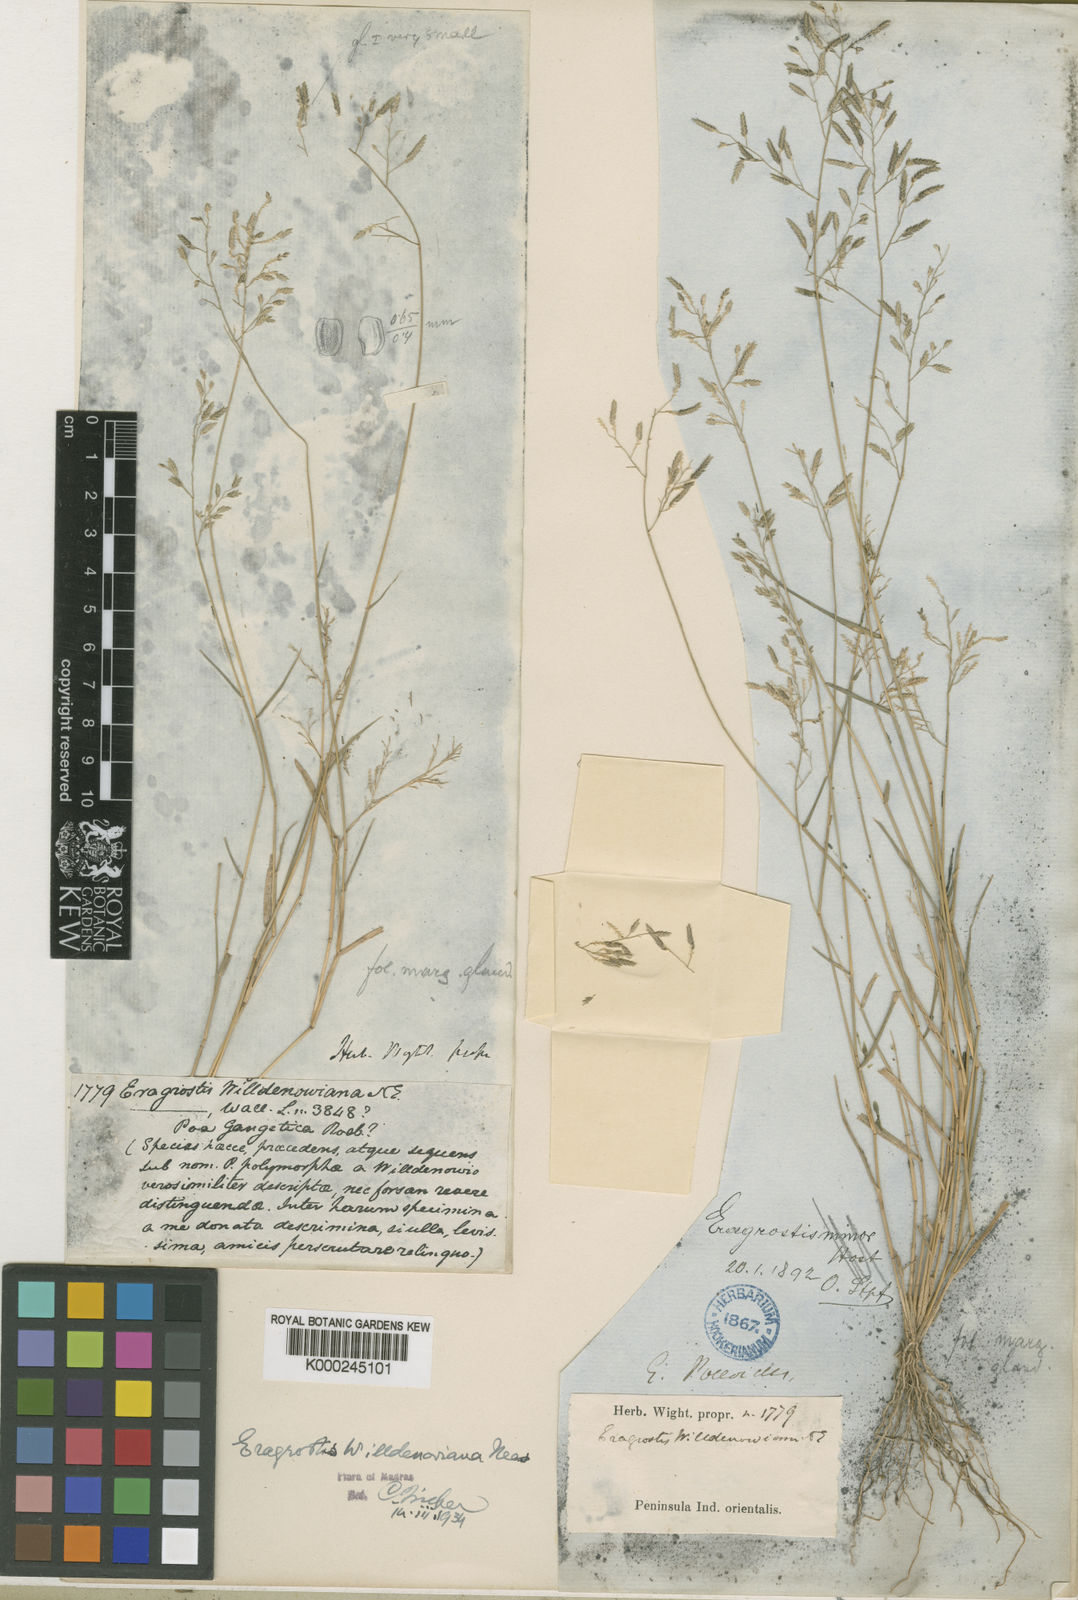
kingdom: Plantae
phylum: Tracheophyta
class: Liliopsida
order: Poales
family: Poaceae
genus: Eragrostis
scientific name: Eragrostis maderaspatana
